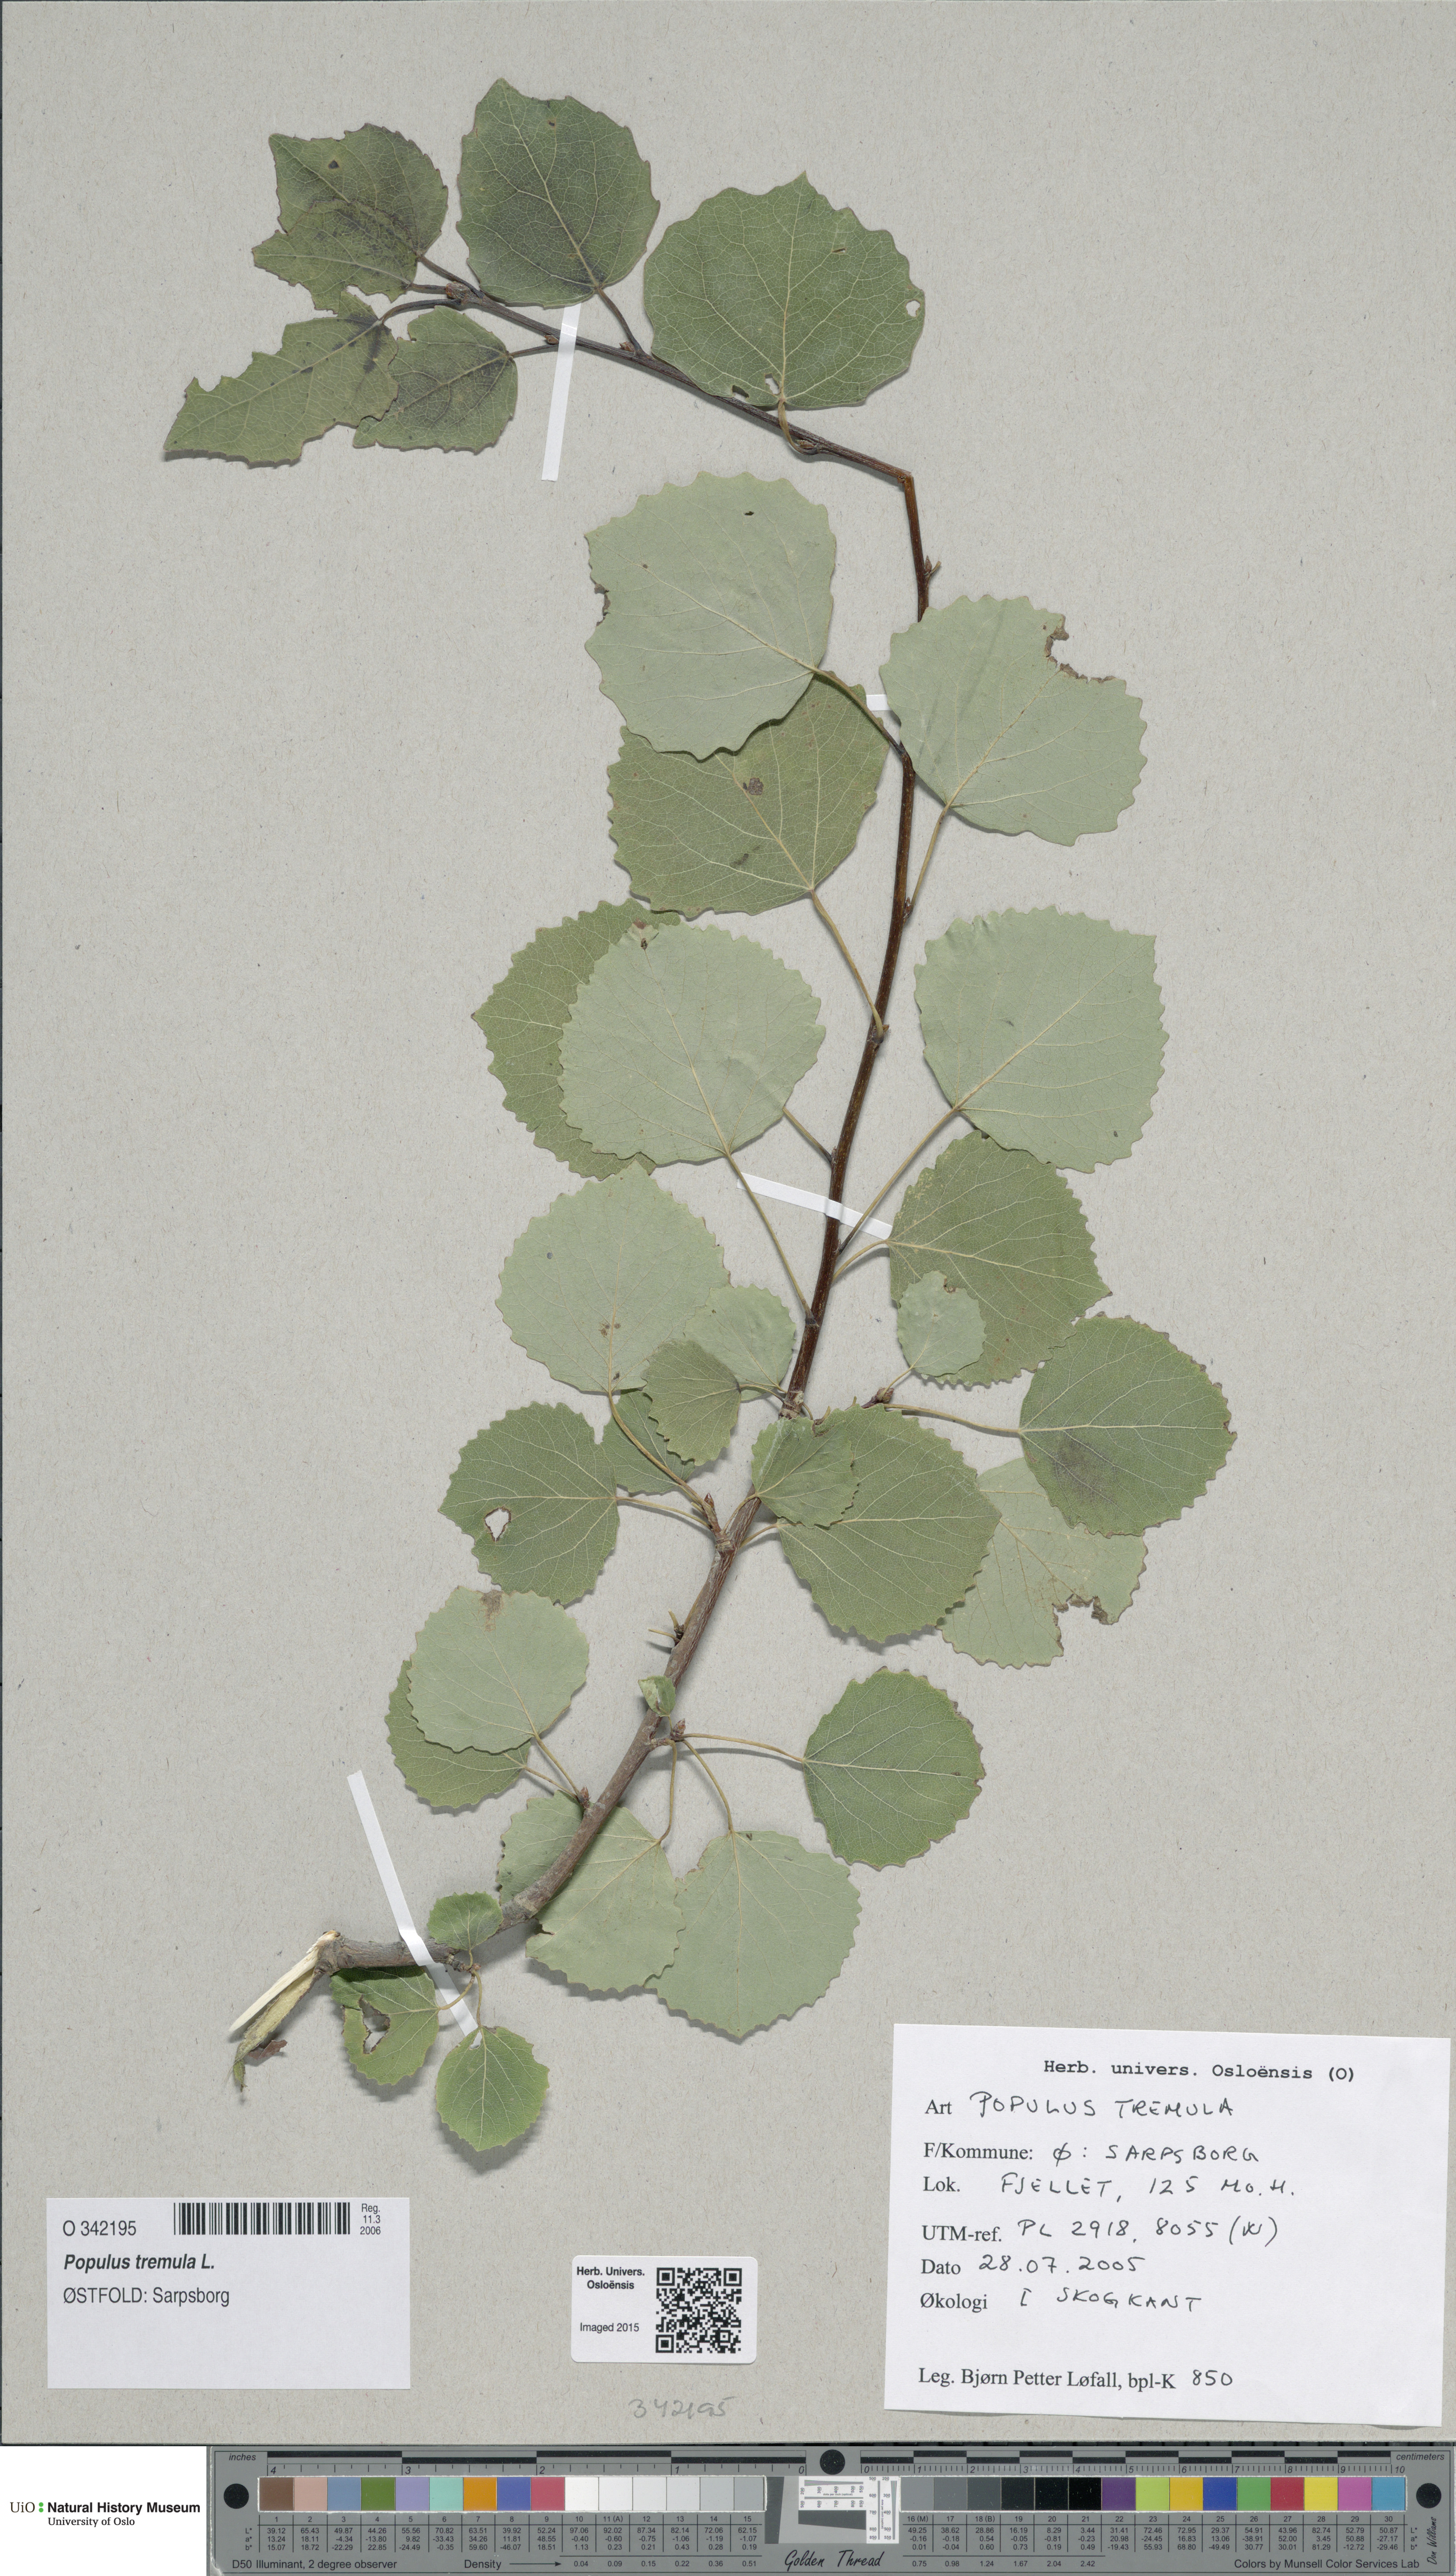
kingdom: Plantae
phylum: Tracheophyta
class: Magnoliopsida
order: Malpighiales
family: Salicaceae
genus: Populus
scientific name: Populus tremula
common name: European aspen
